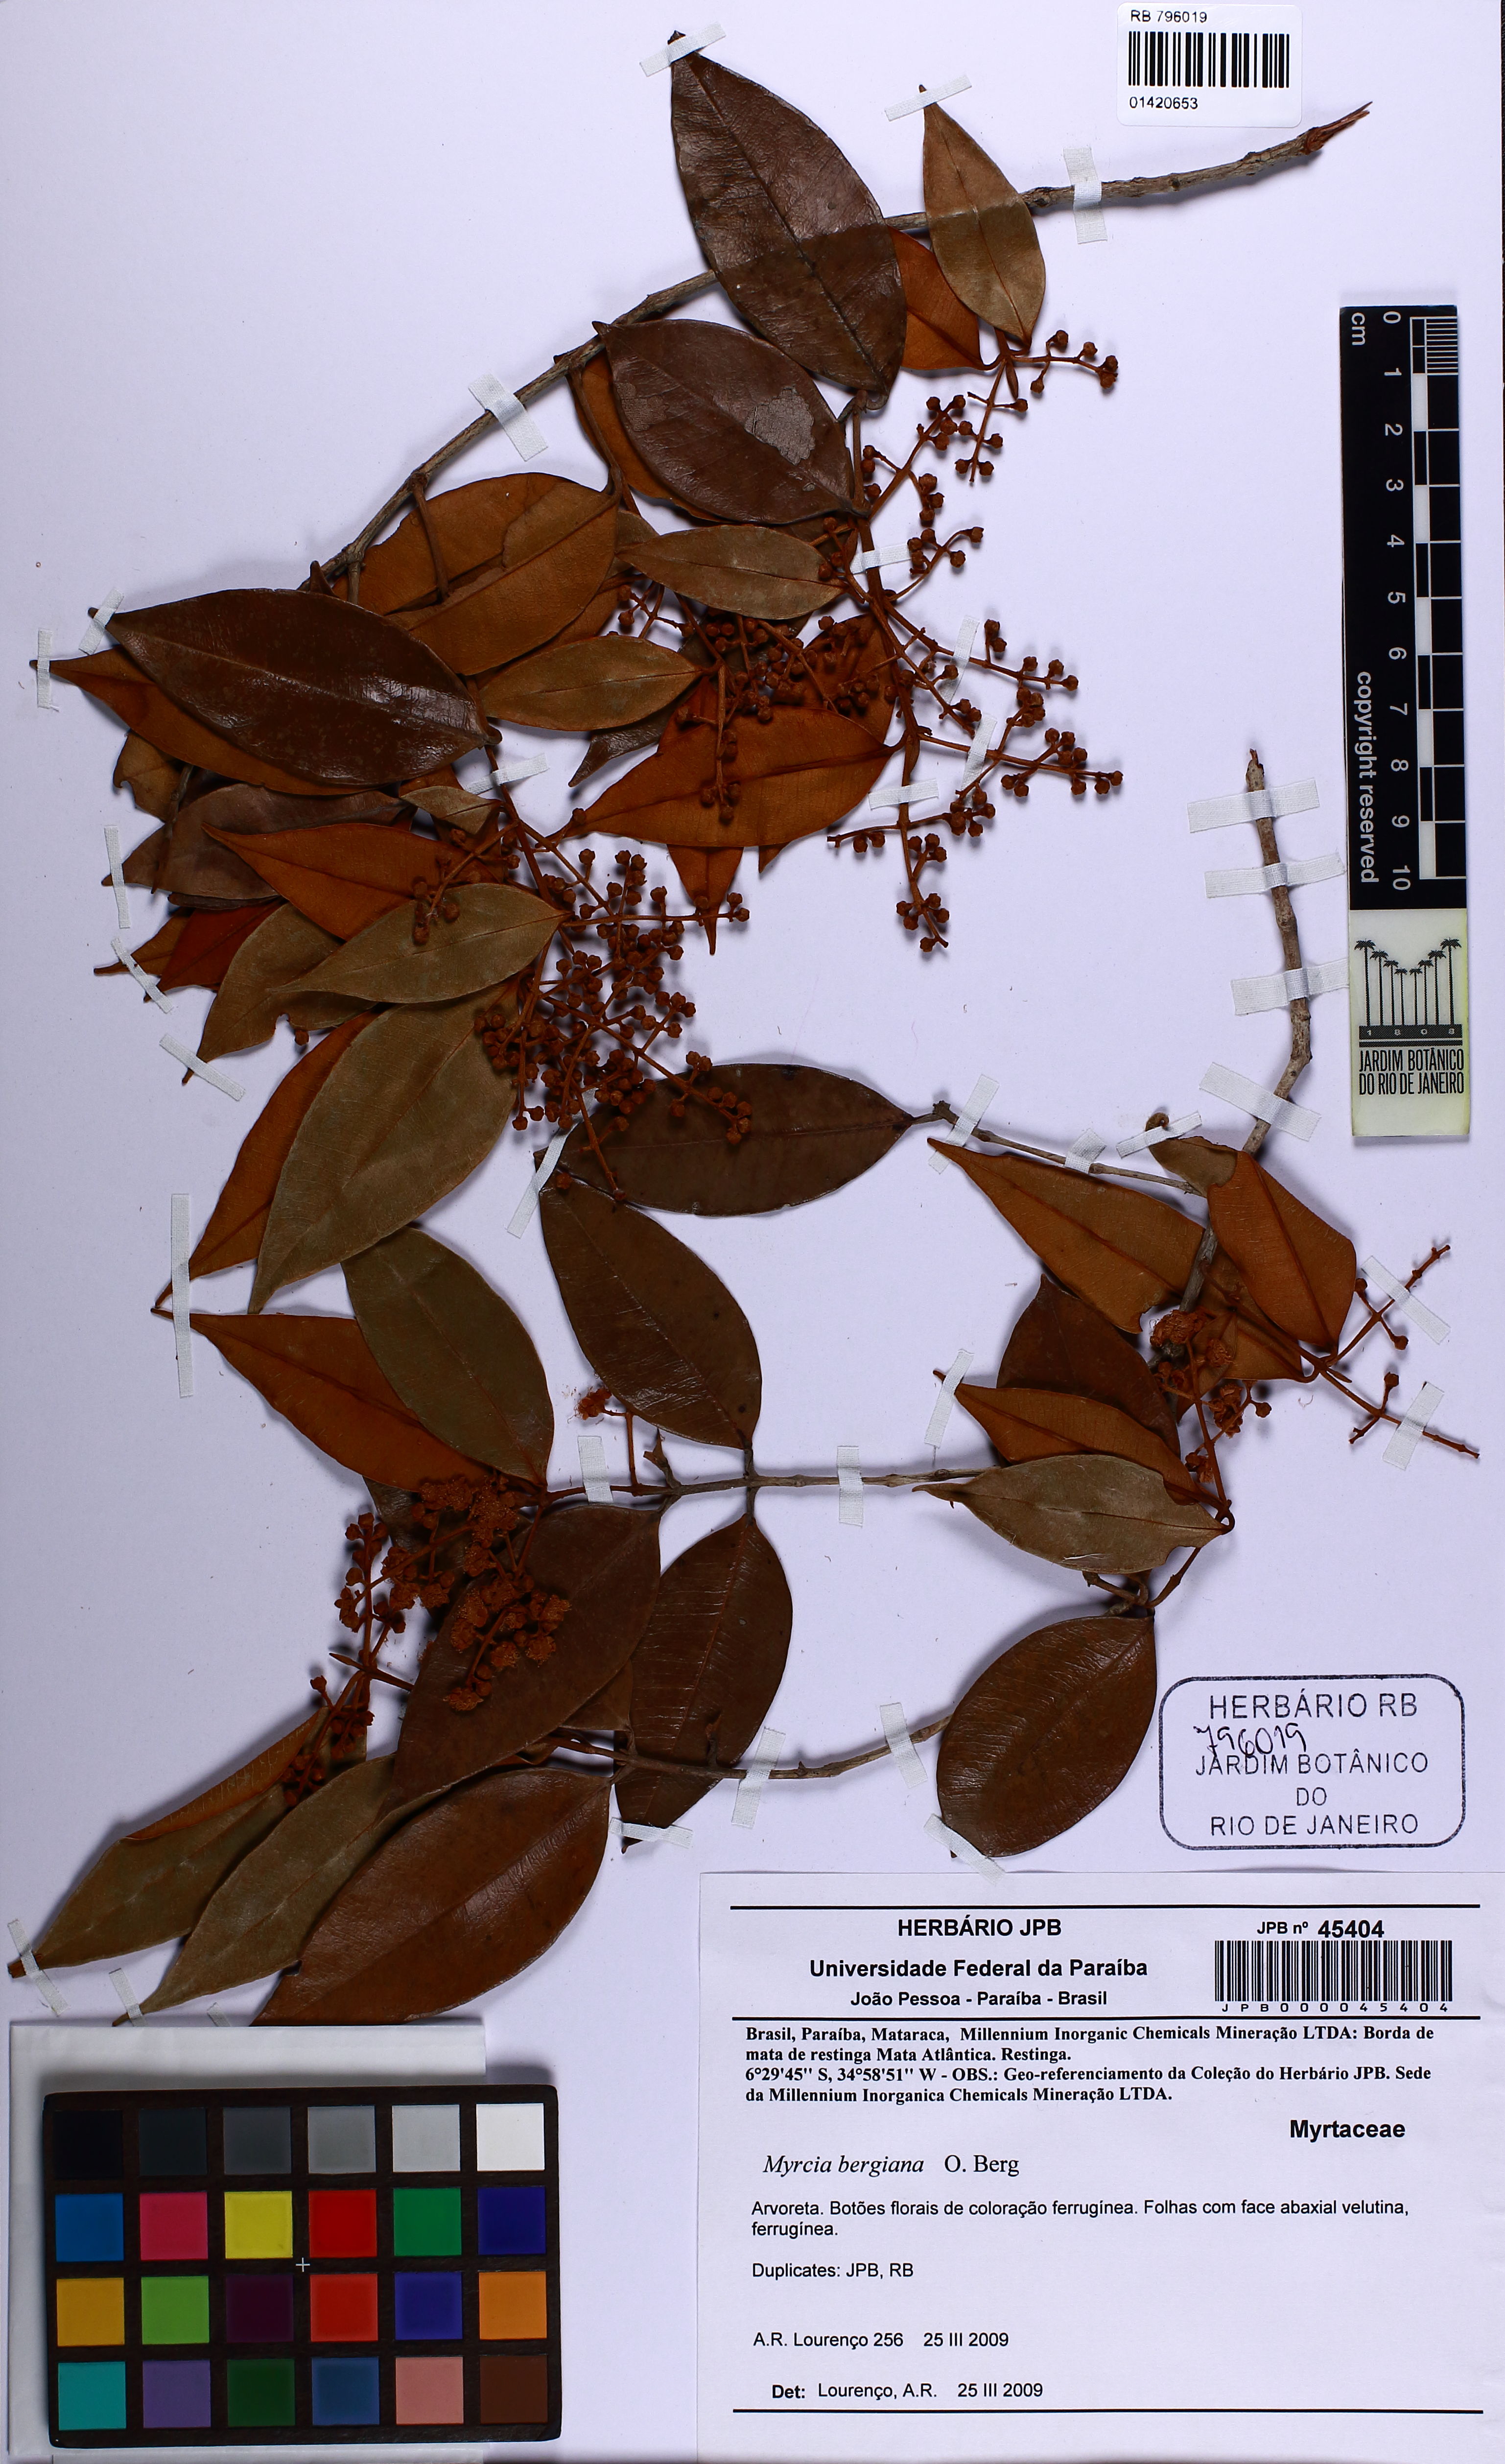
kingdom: Plantae
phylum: Tracheophyta
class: Magnoliopsida
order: Myrtales
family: Myrtaceae
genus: Myrcia
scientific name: Myrcia bergiana
